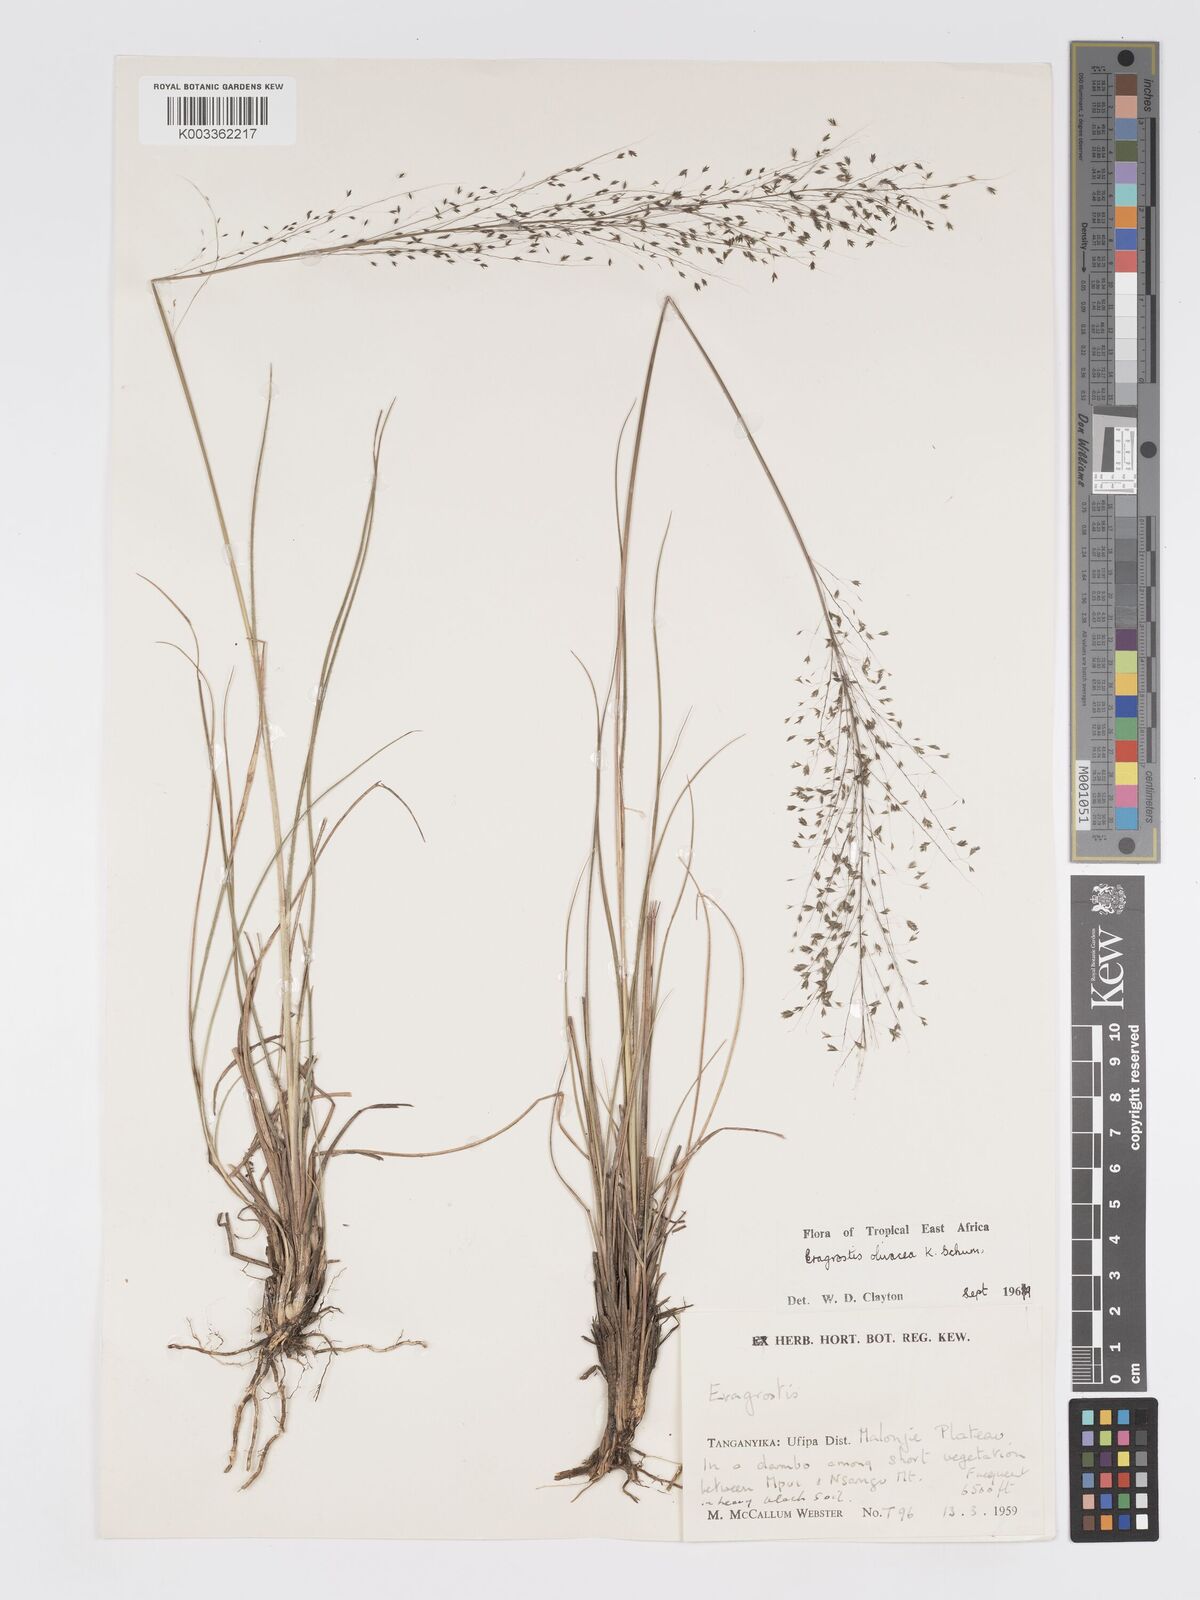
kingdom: Plantae
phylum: Tracheophyta
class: Liliopsida
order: Poales
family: Poaceae
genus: Eragrostis
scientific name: Eragrostis olivacea
